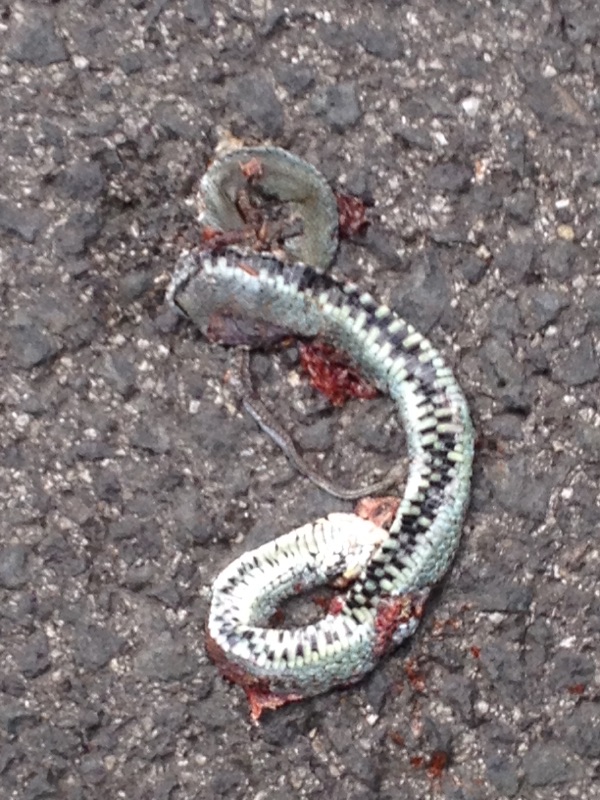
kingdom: Animalia
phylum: Chordata
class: Squamata
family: Colubridae
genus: Natrix
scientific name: Natrix natrix
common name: Grass snake
